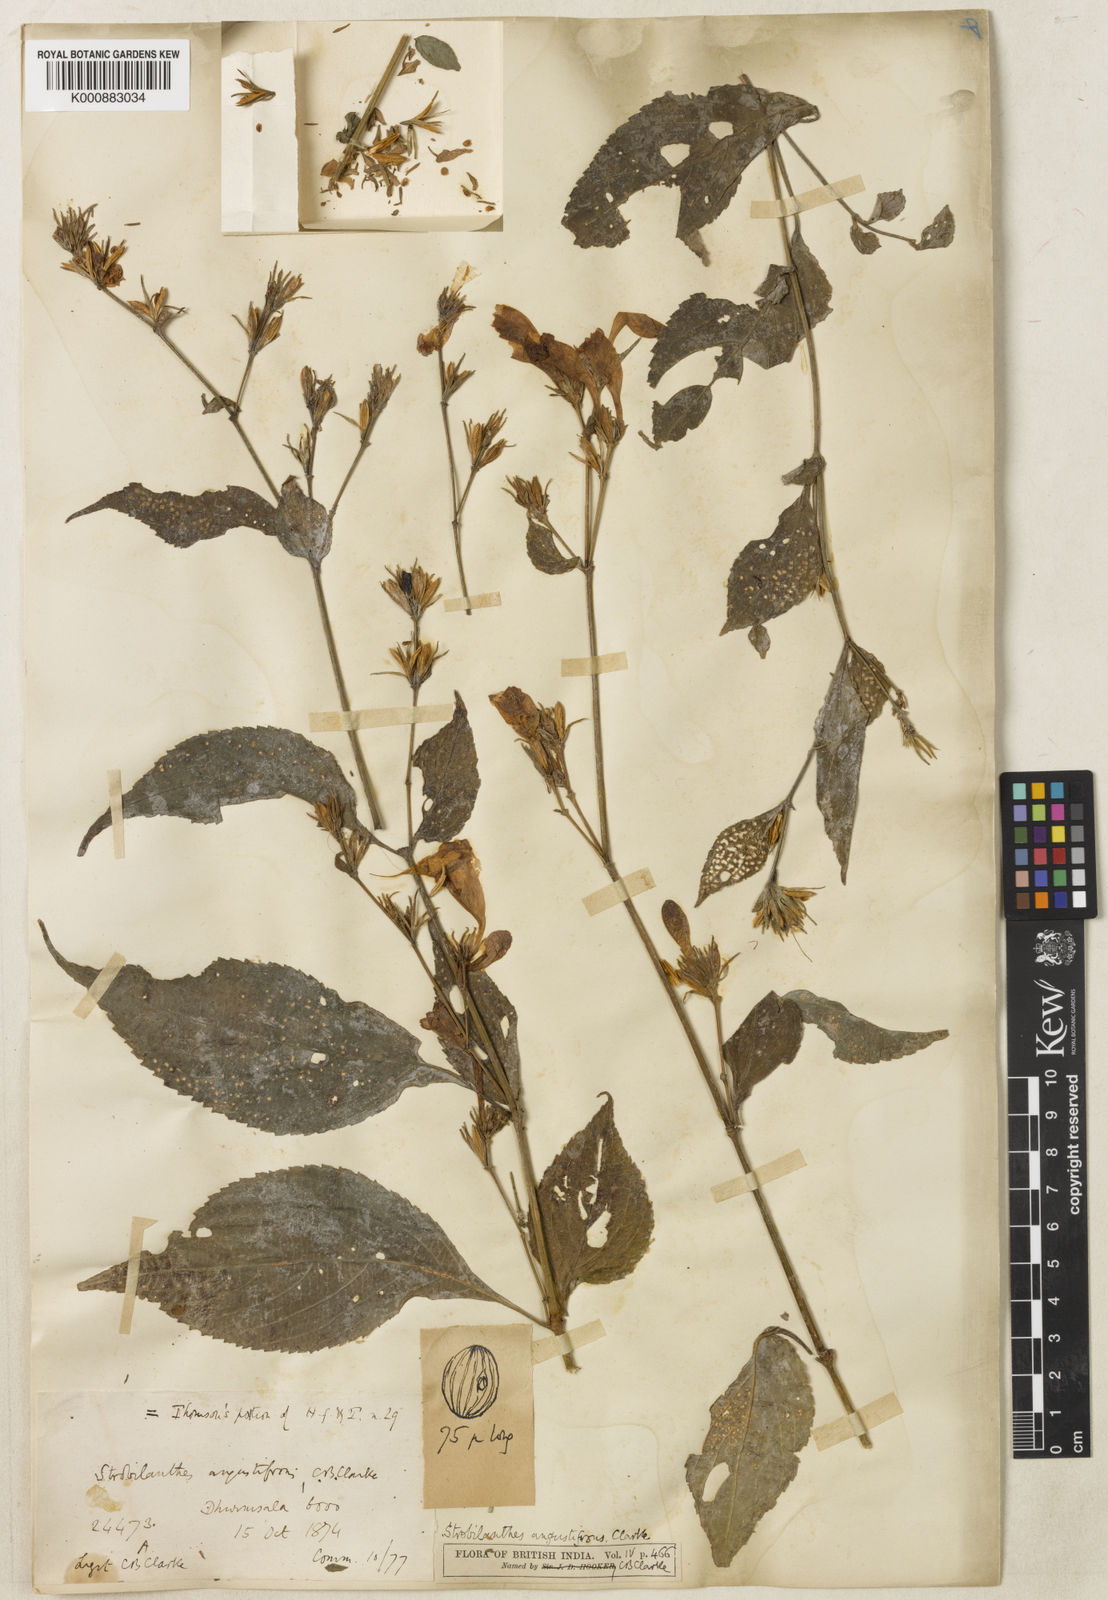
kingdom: Plantae
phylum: Tracheophyta
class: Magnoliopsida
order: Lamiales
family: Acanthaceae
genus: Strobilanthes
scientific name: Strobilanthes angustifrons
